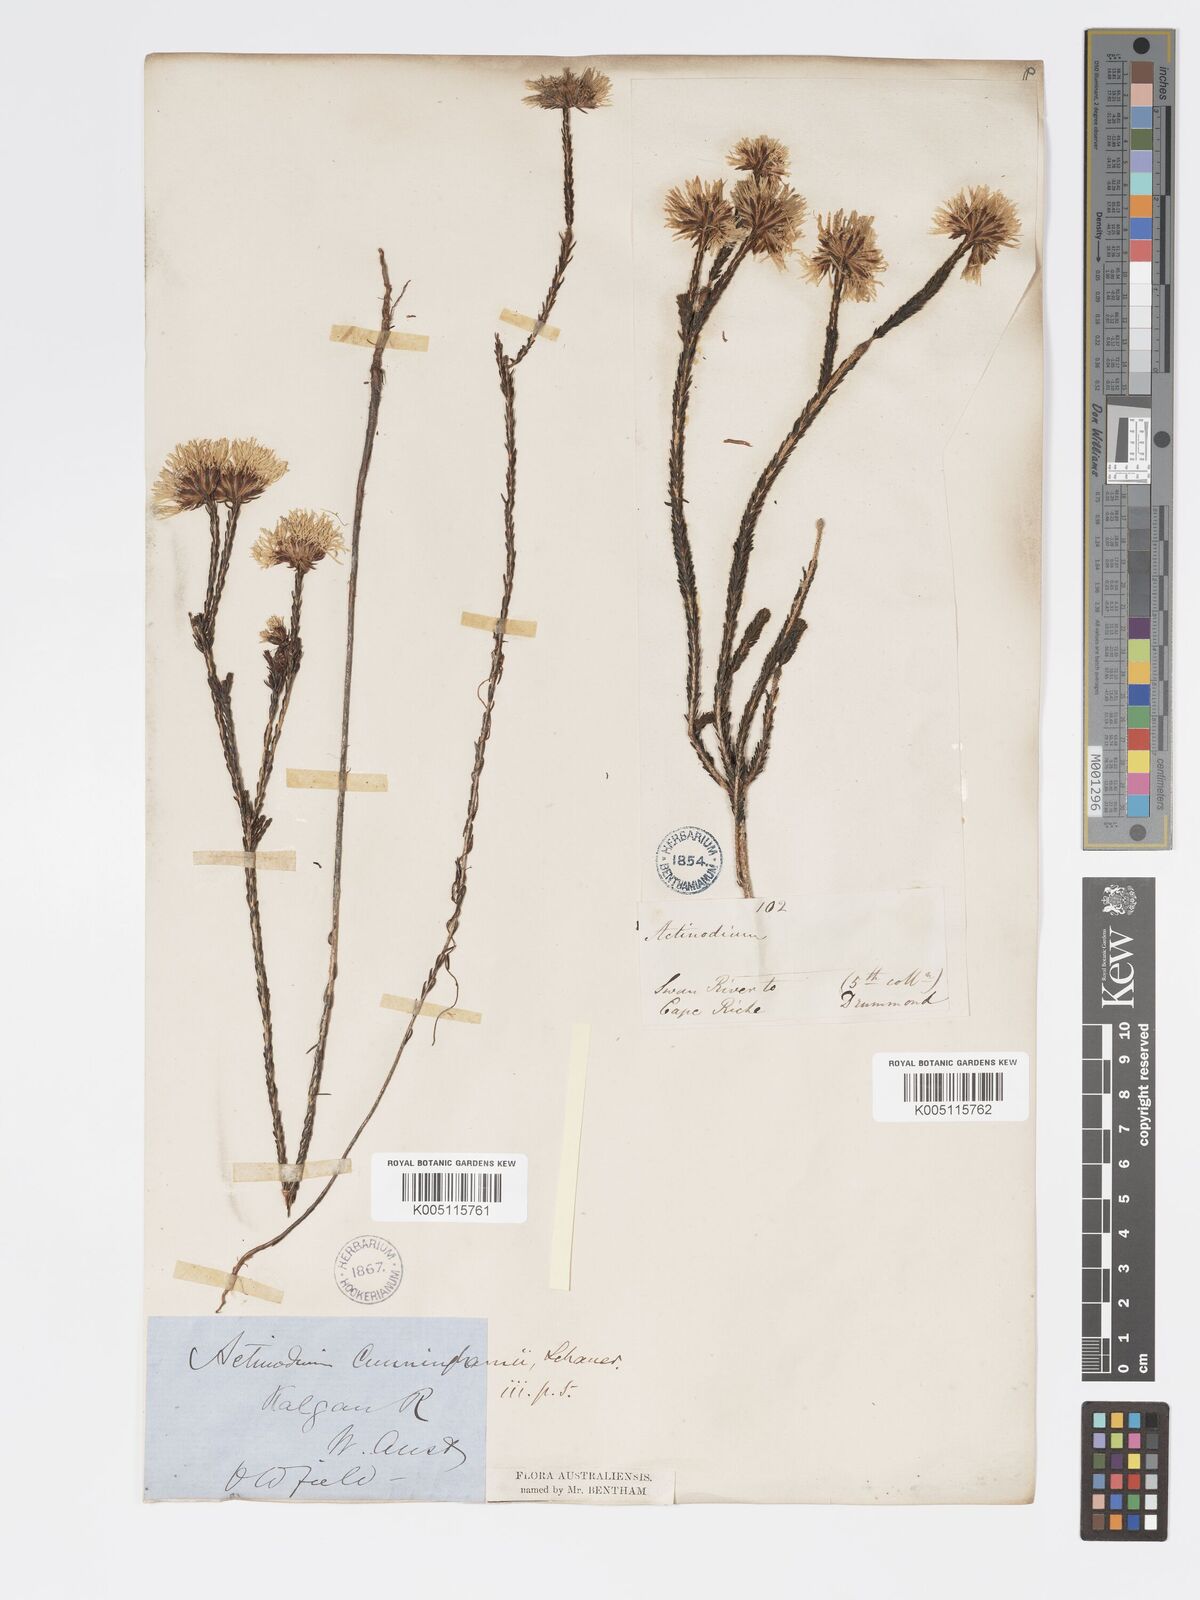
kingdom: Plantae
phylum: Tracheophyta
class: Magnoliopsida
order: Myrtales
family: Myrtaceae
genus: Actinodium
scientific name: Actinodium cunninghamii
